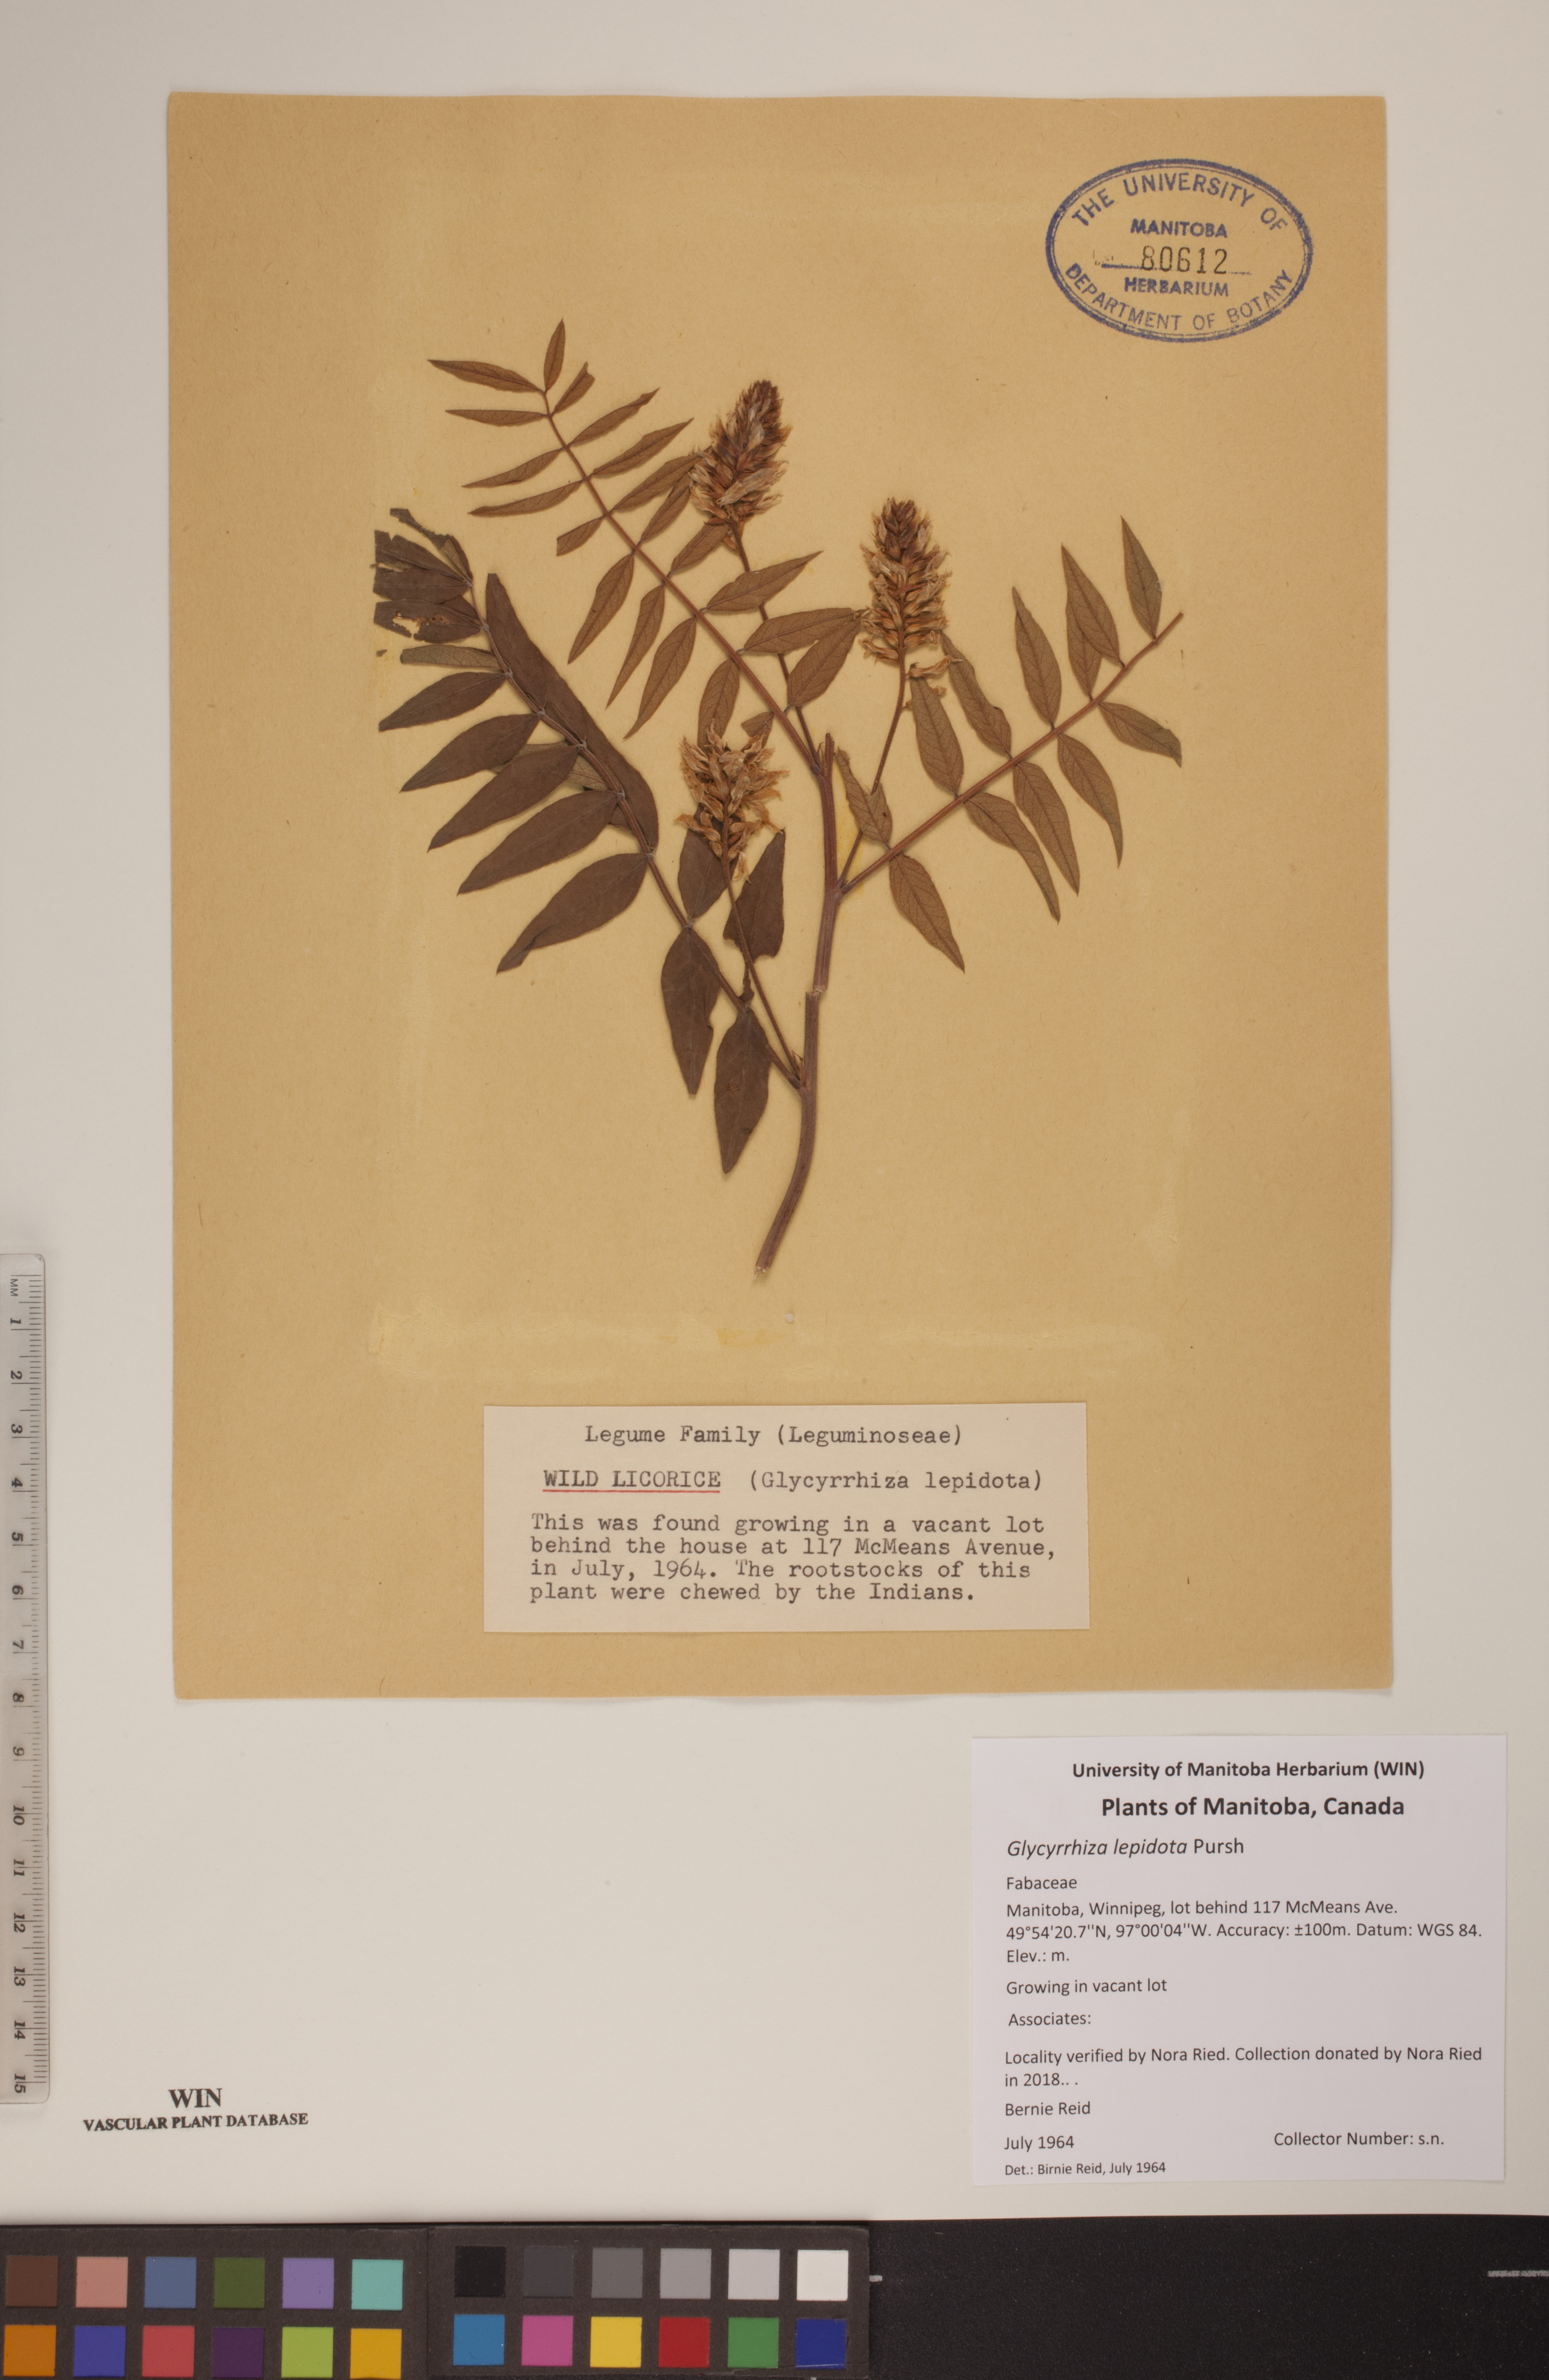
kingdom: Plantae
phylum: Tracheophyta
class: Magnoliopsida
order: Fabales
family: Fabaceae
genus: Glycyrrhiza
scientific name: Glycyrrhiza lepidota
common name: American liquorice
